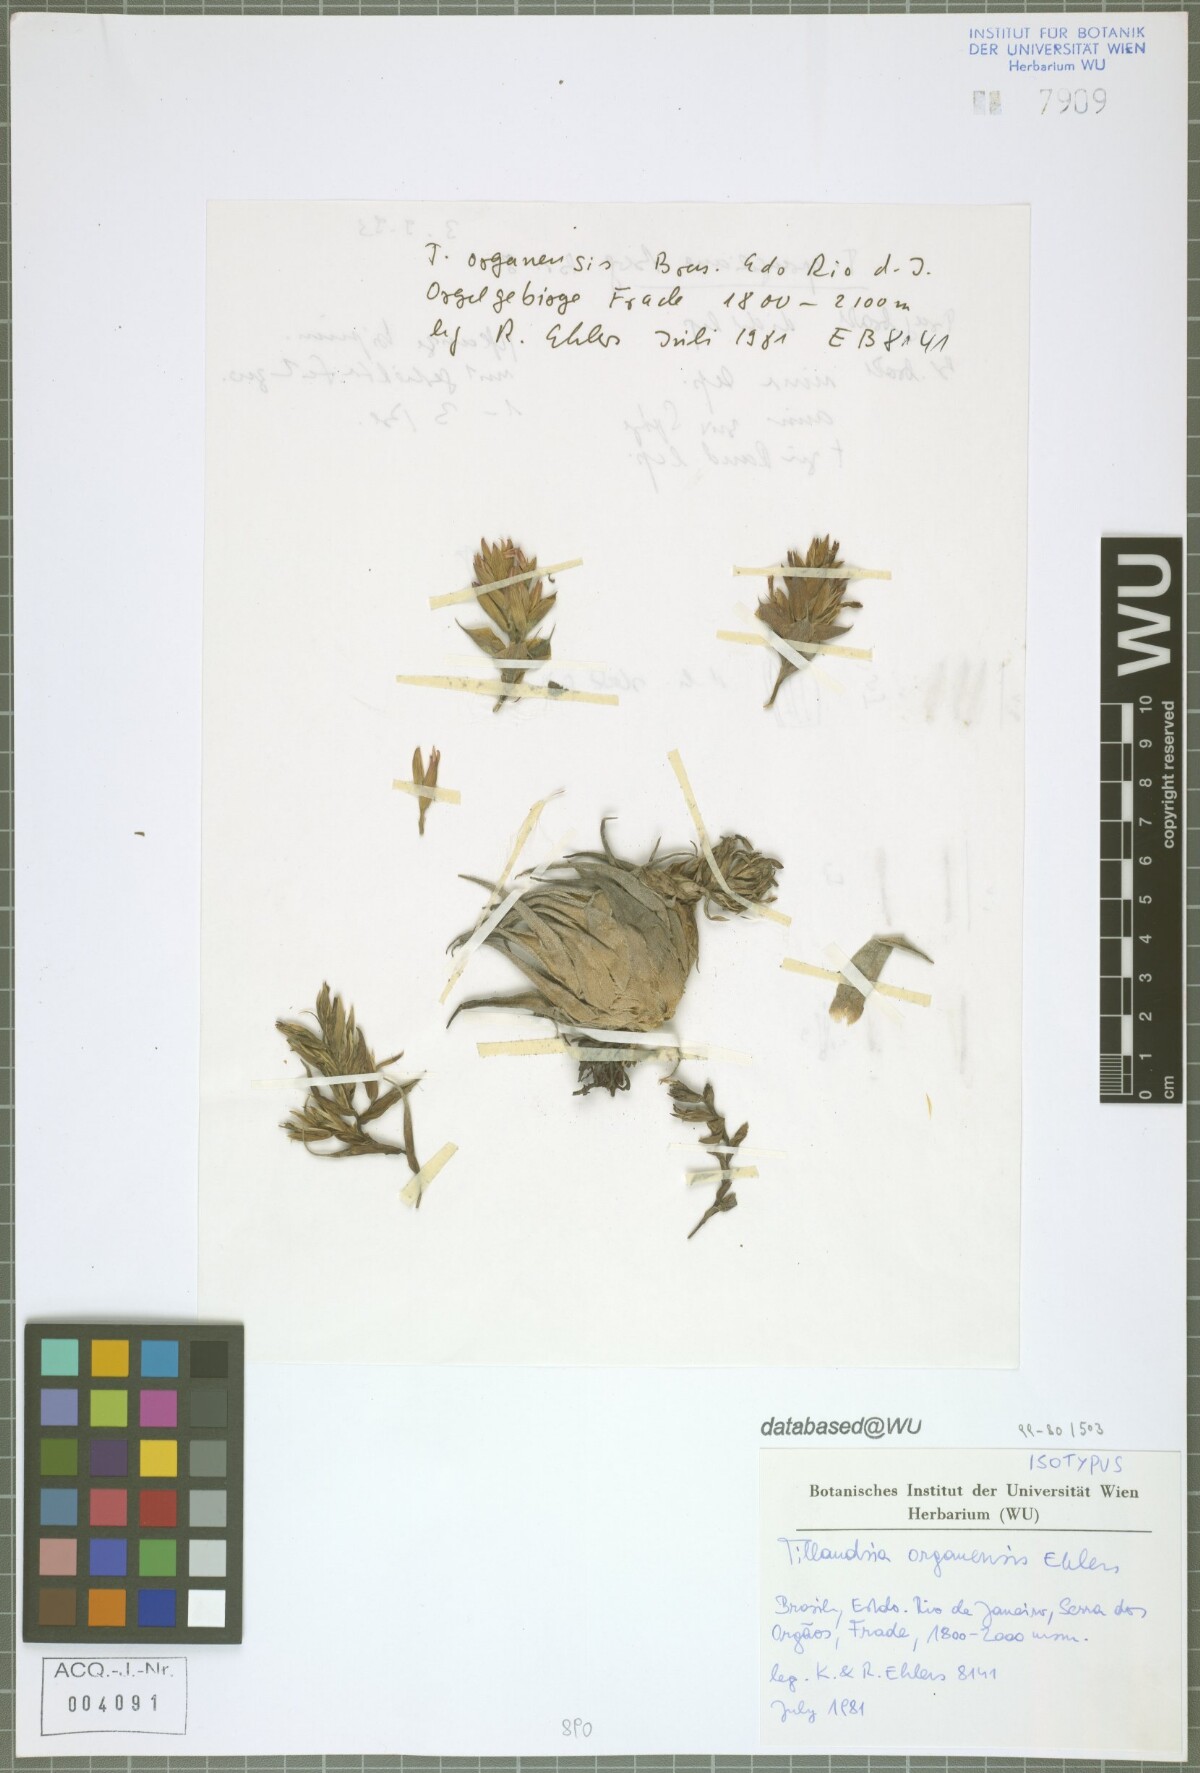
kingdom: Plantae
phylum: Tracheophyta
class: Liliopsida
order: Poales
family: Bromeliaceae
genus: Tillandsia
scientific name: Tillandsia organensis
